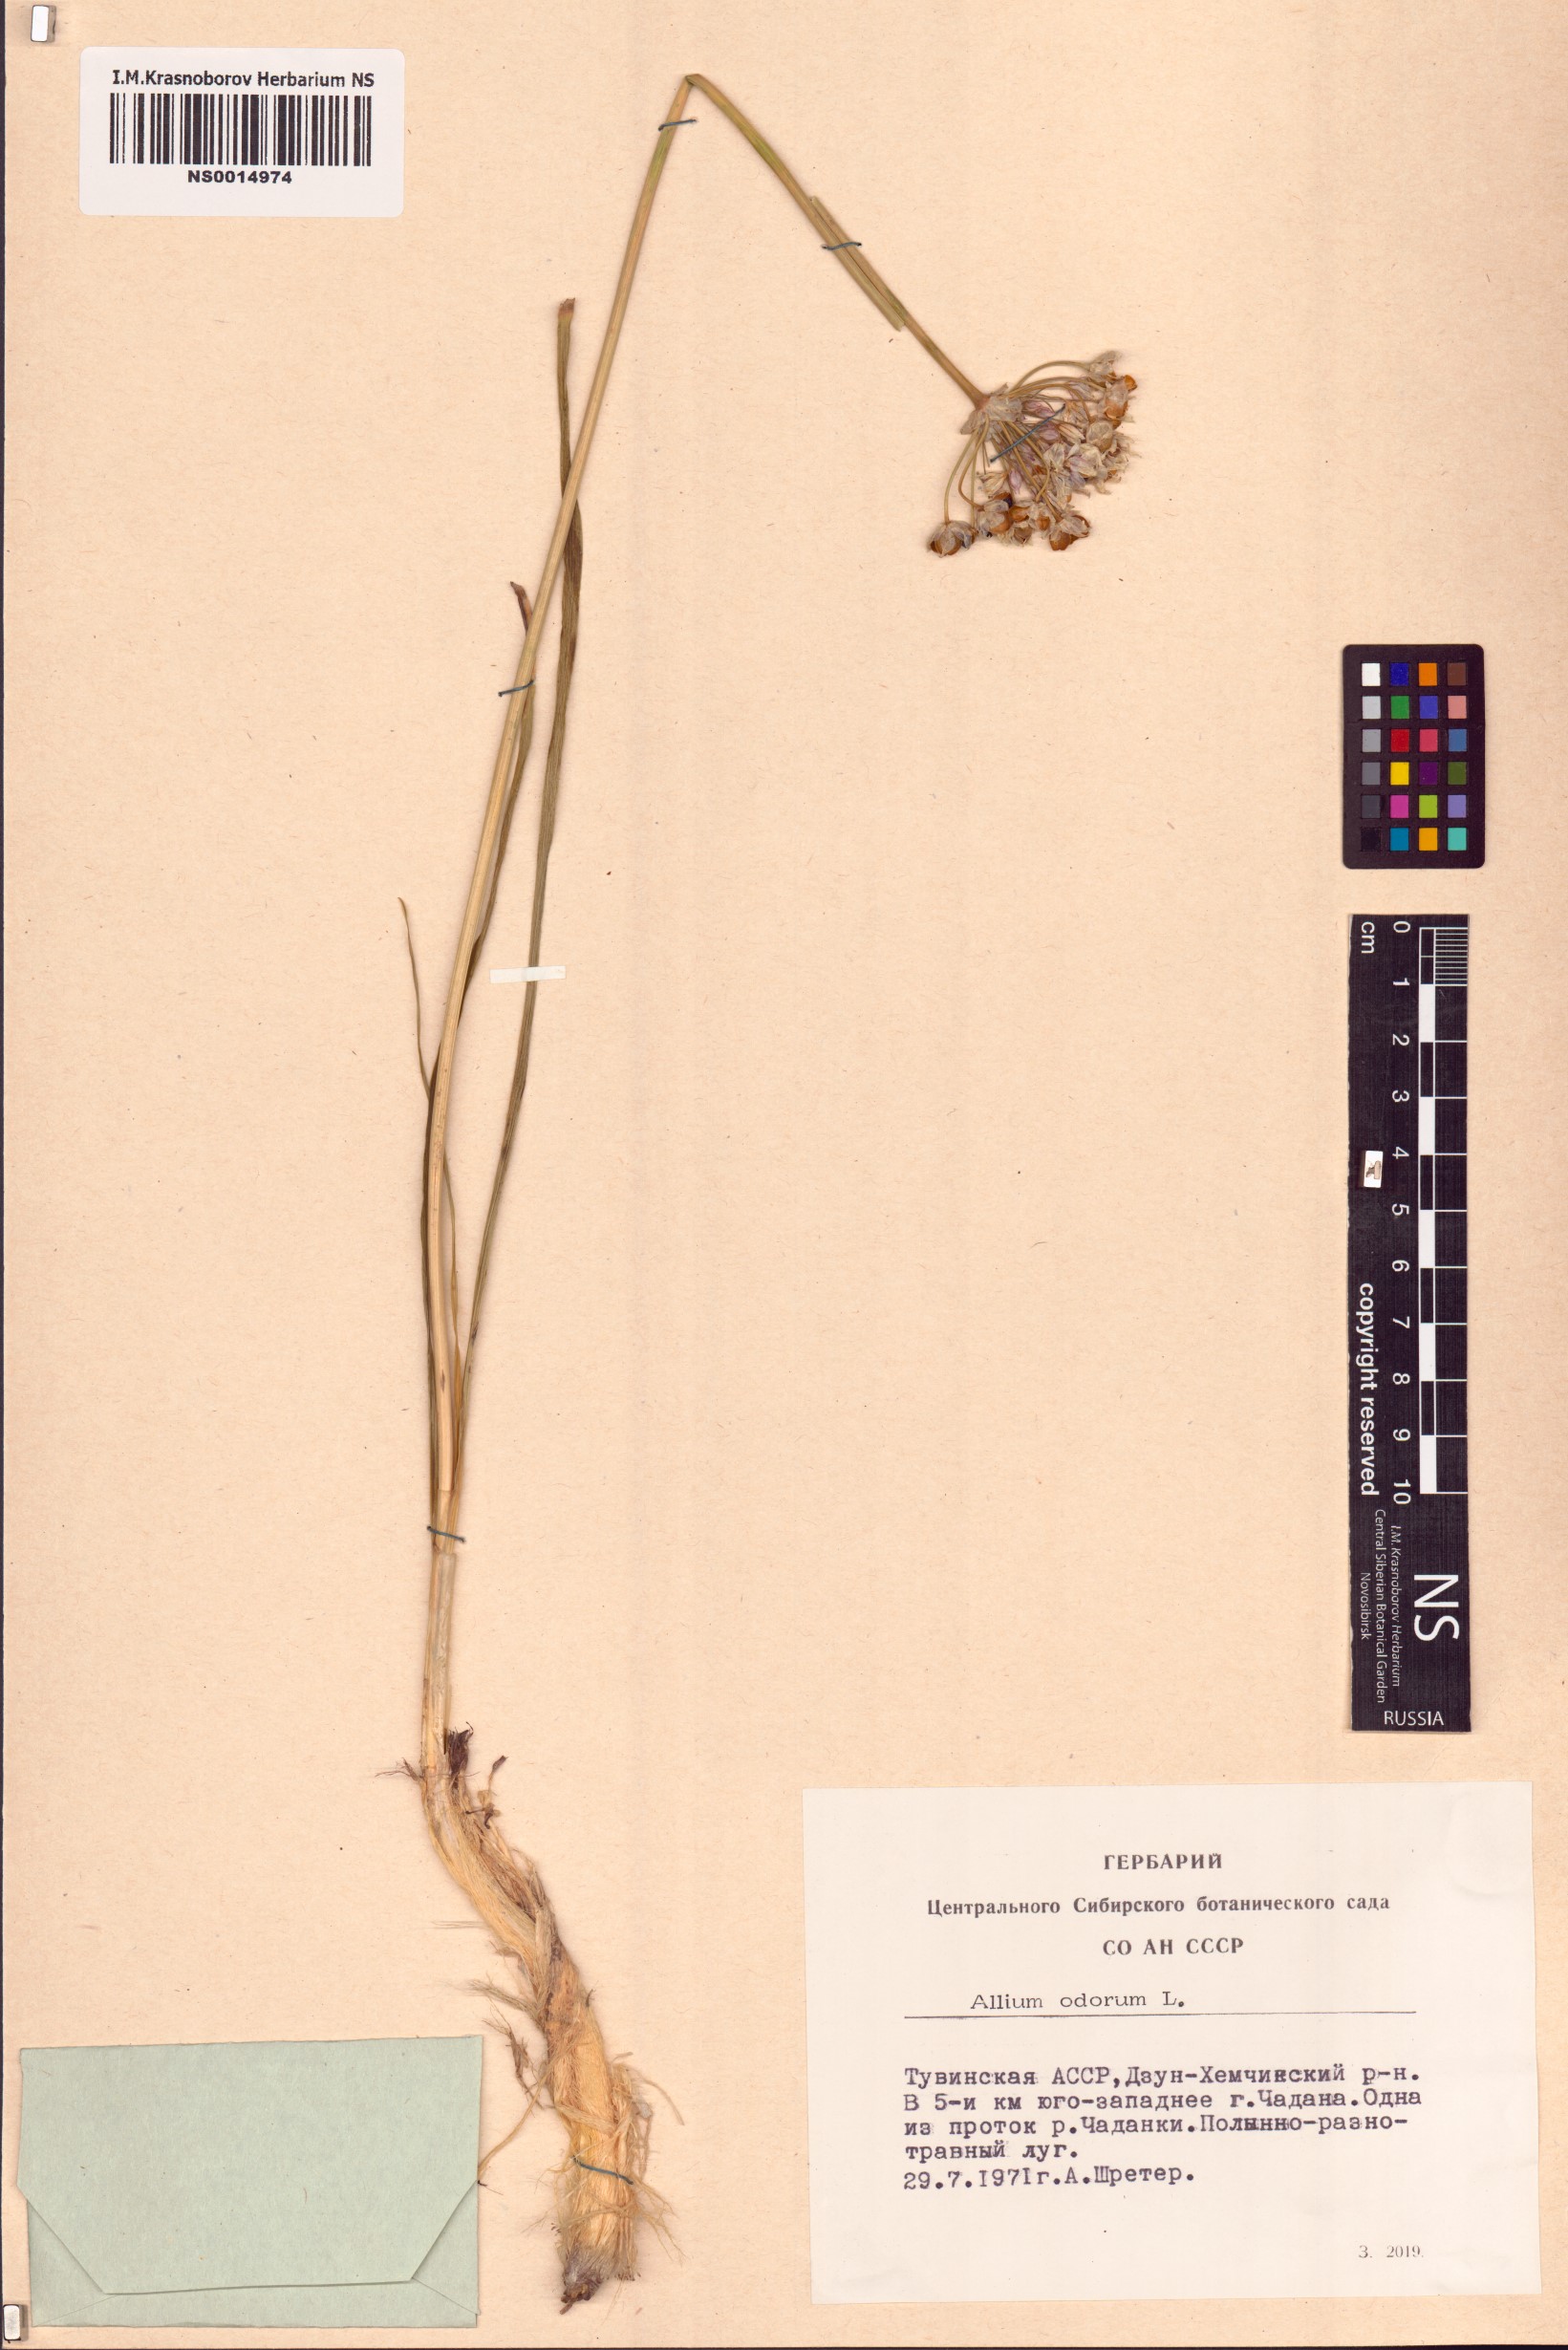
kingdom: Plantae
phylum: Tracheophyta
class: Liliopsida
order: Asparagales
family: Amaryllidaceae
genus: Allium
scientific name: Allium ramosum
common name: Fragrant garlic
